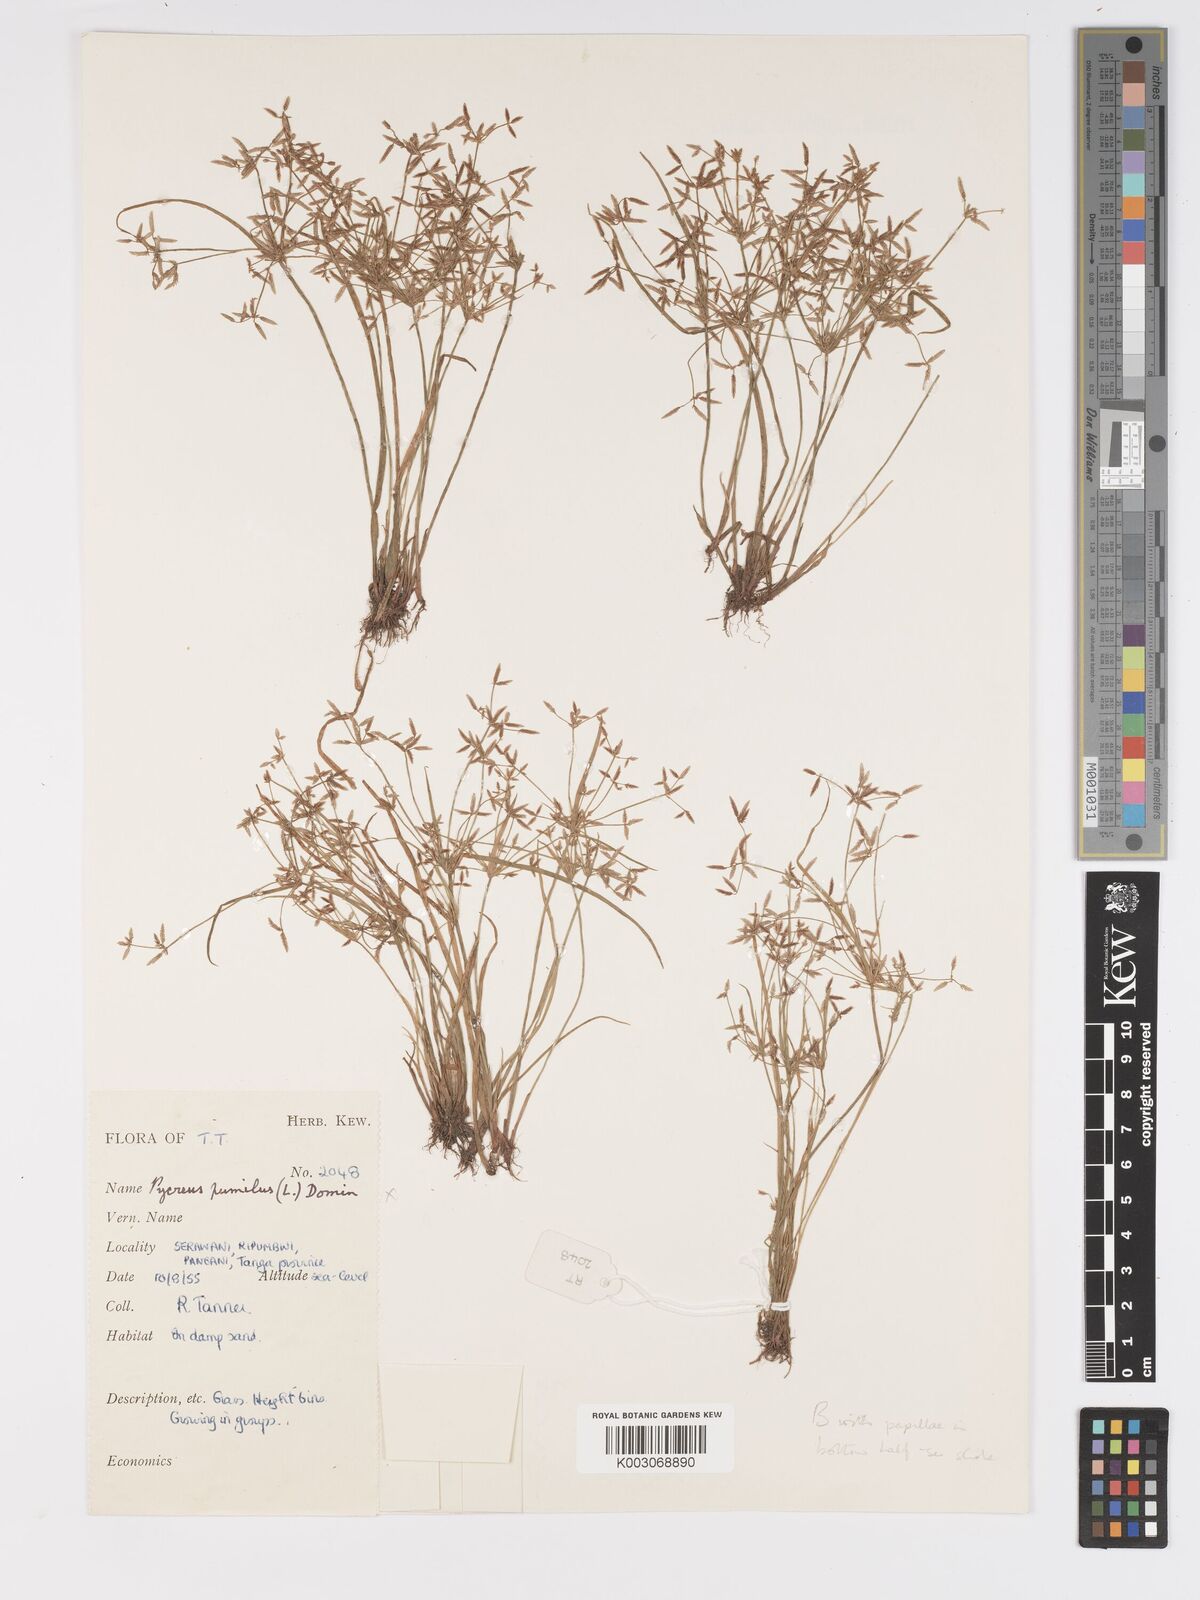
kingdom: Plantae
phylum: Tracheophyta
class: Liliopsida
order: Poales
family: Cyperaceae
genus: Cyperus
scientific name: Cyperus tenuispica
